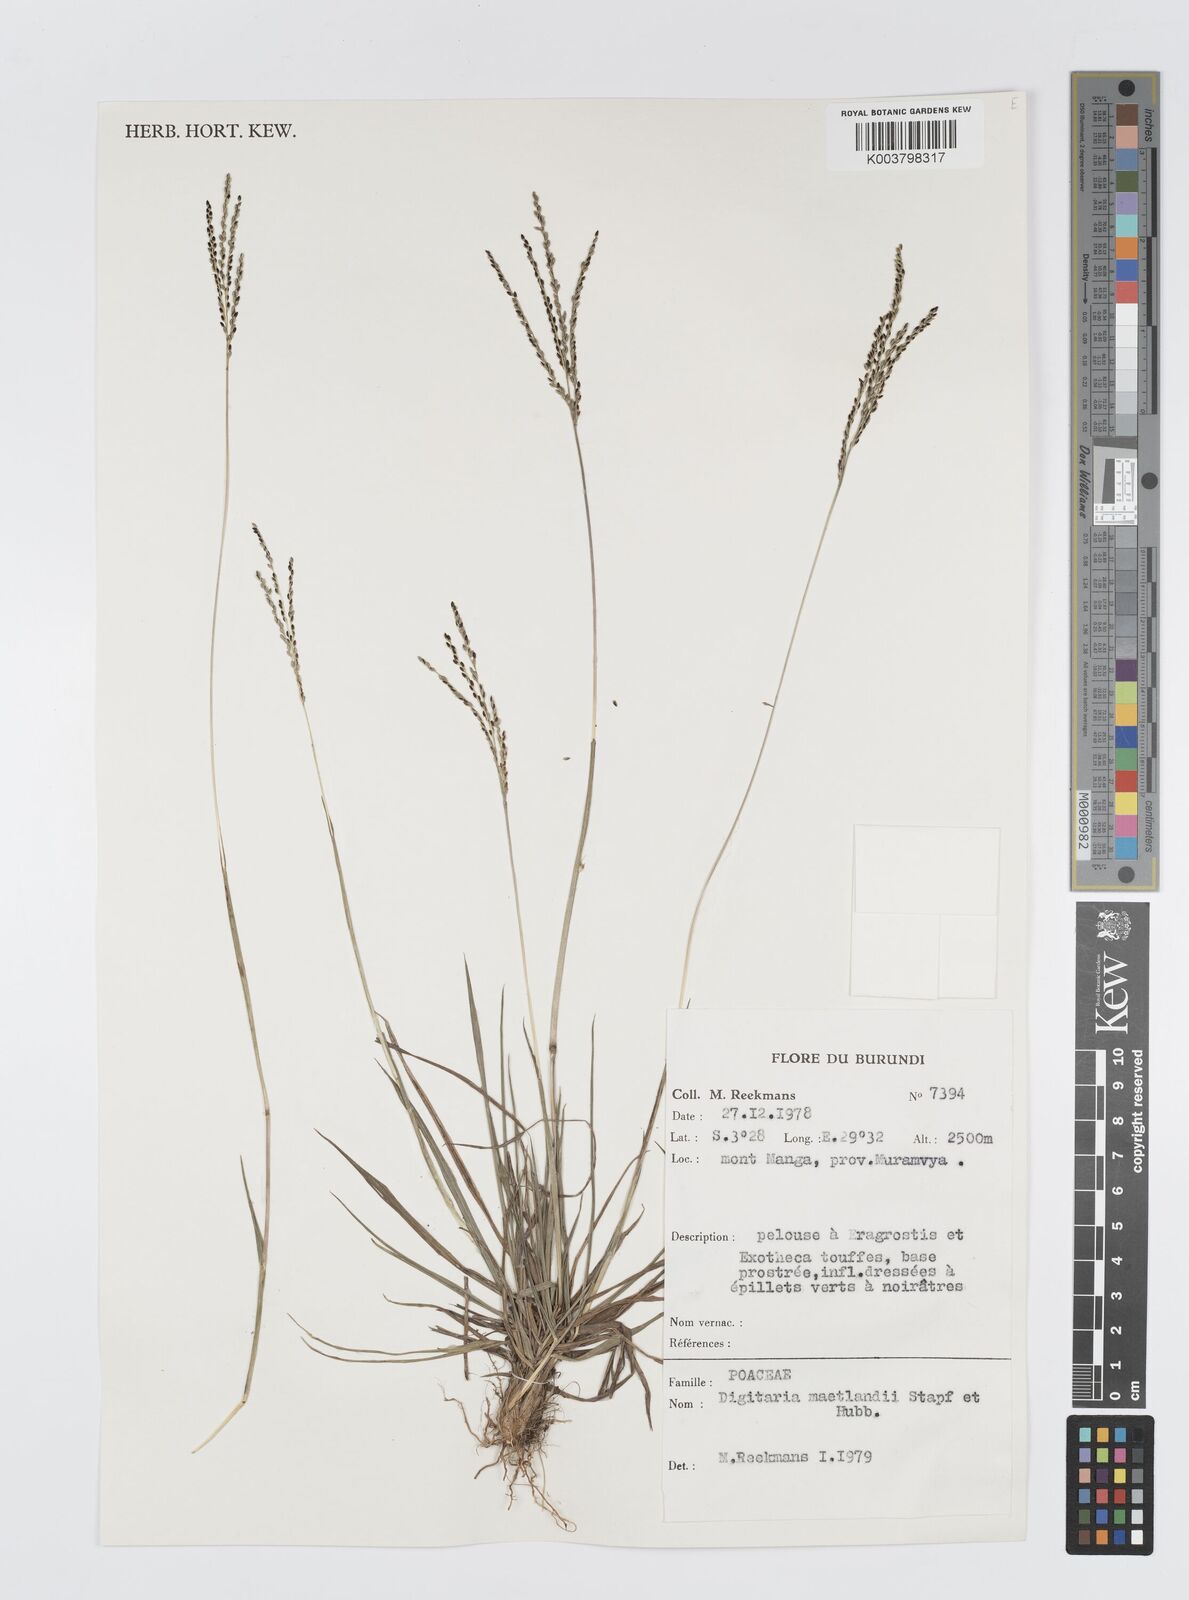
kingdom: Plantae
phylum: Tracheophyta
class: Liliopsida
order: Poales
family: Poaceae
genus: Digitaria
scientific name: Digitaria maitlandii
